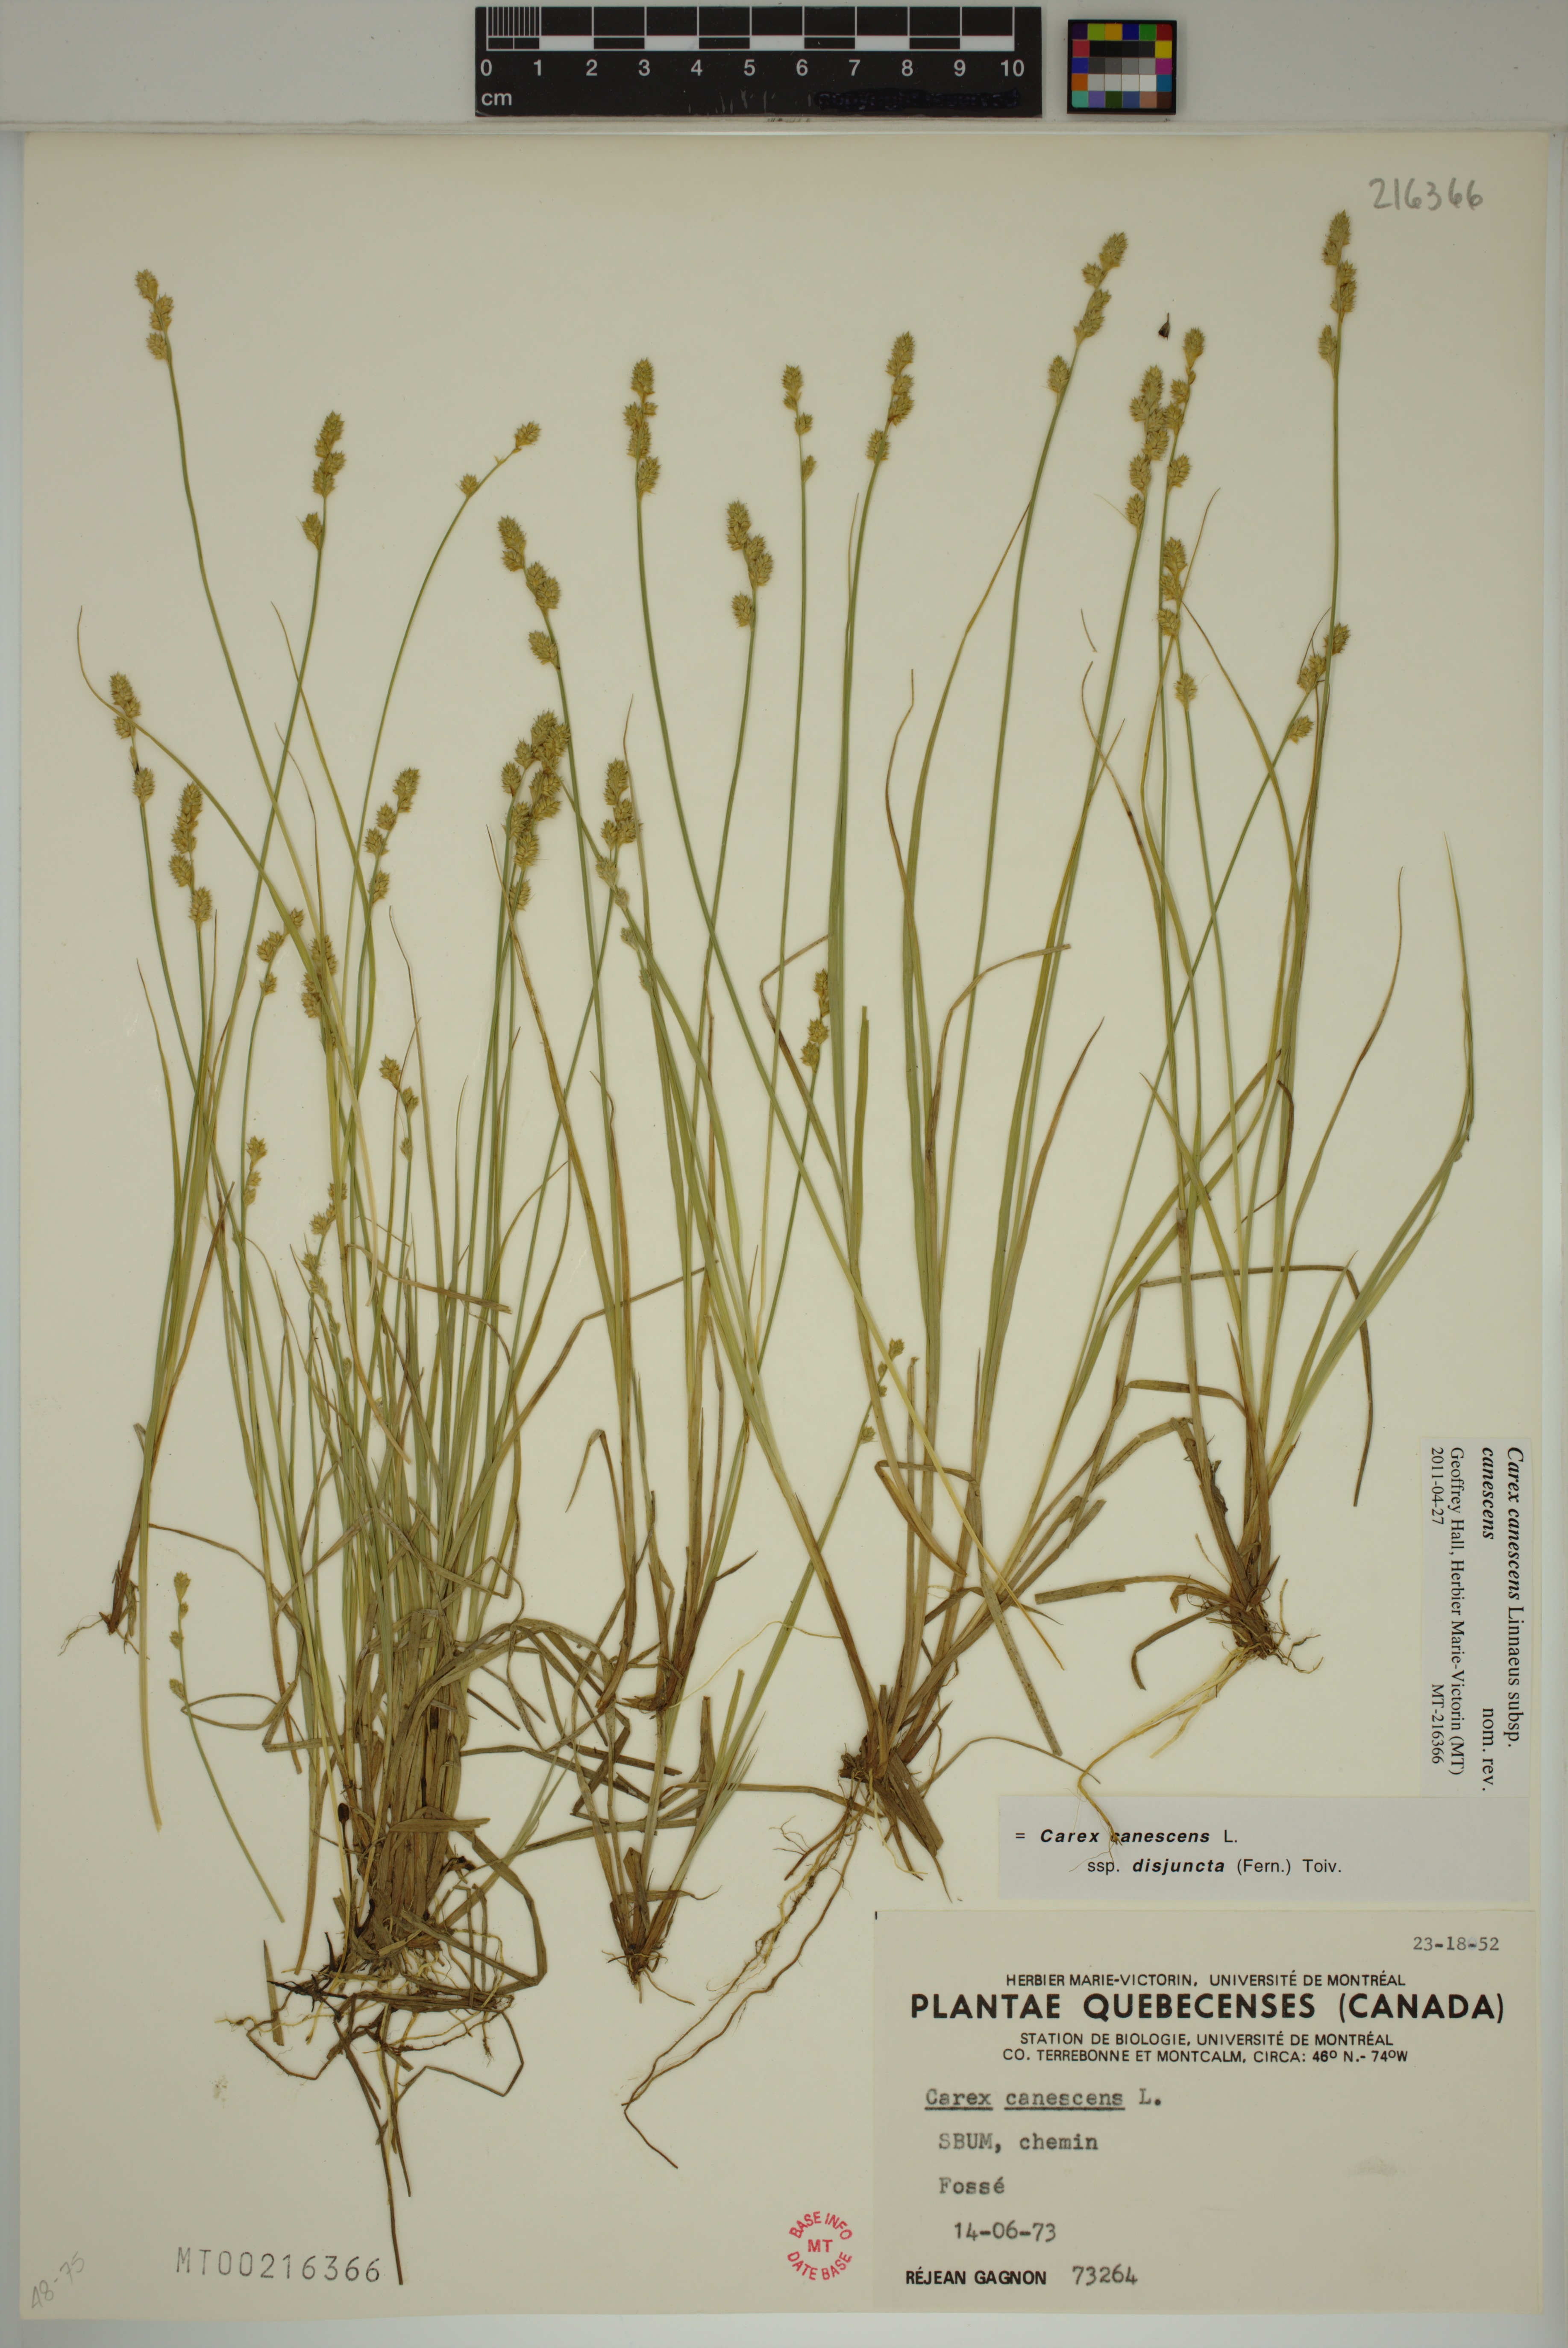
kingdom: Plantae
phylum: Tracheophyta
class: Liliopsida
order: Poales
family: Cyperaceae
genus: Carex
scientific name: Carex canescens
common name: White sedge
